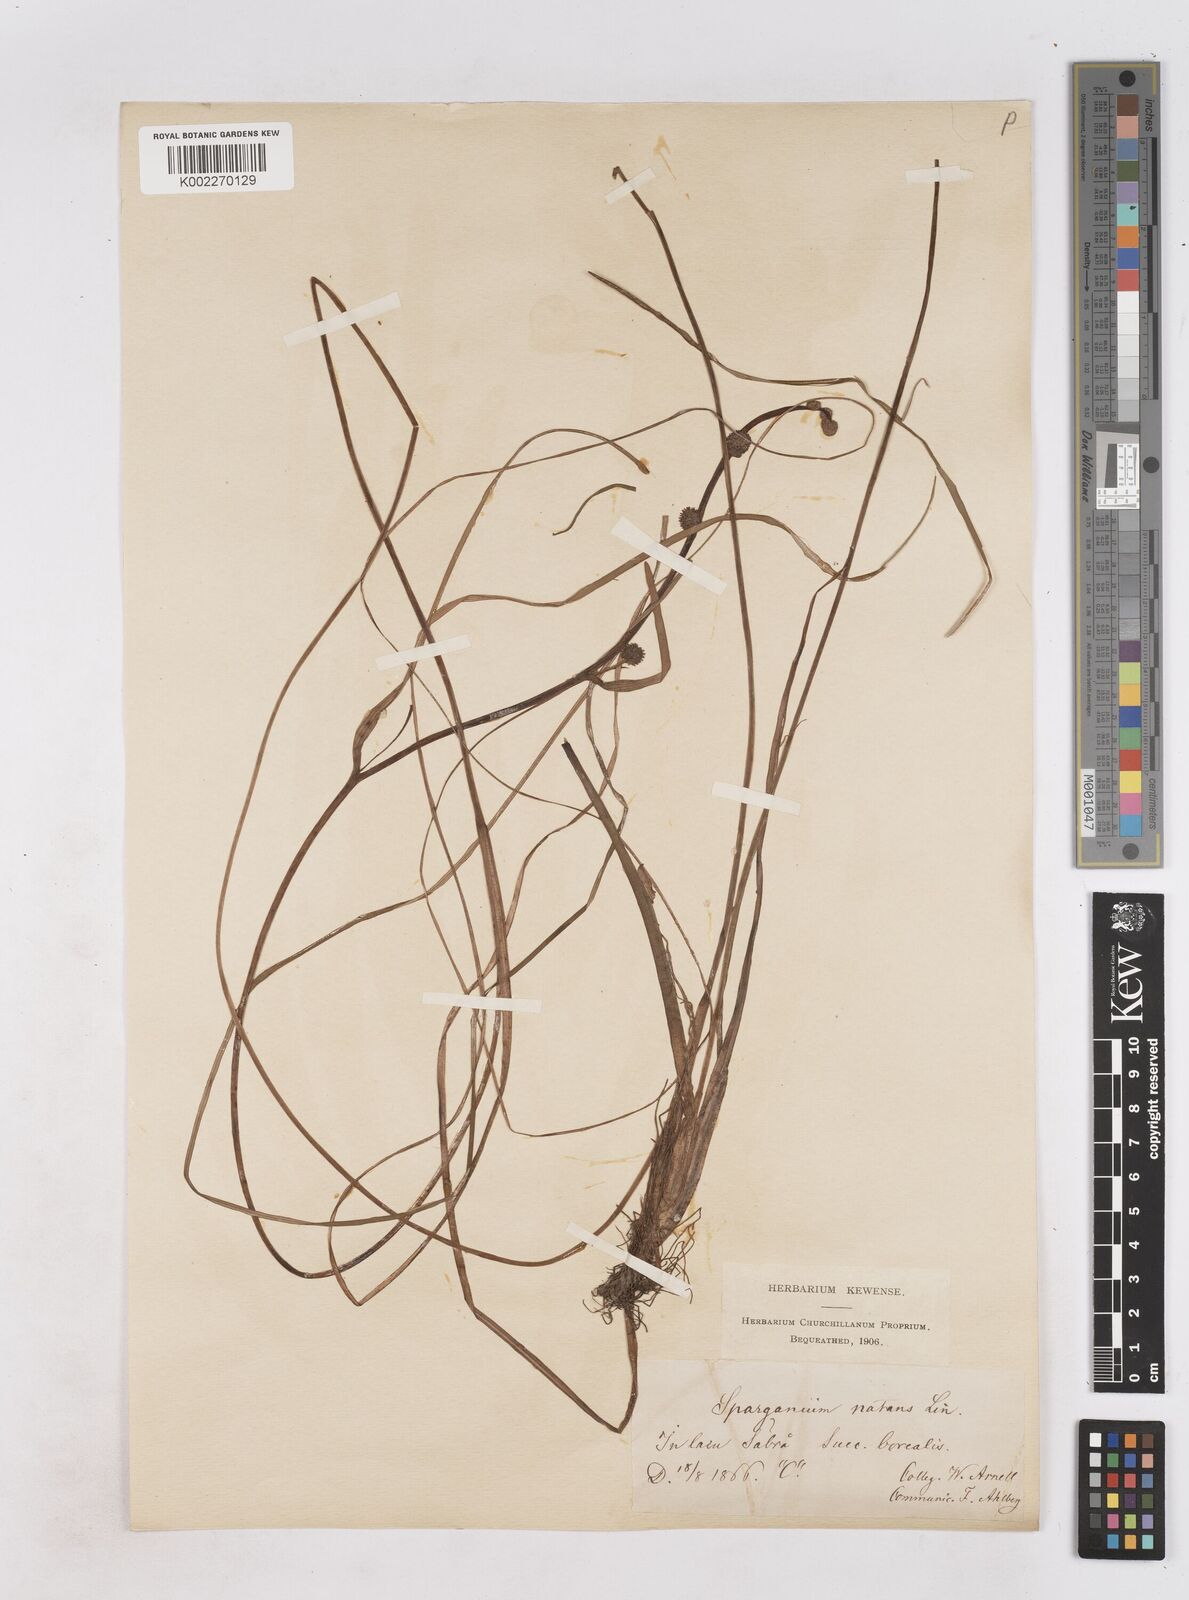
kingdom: Plantae
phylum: Tracheophyta
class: Liliopsida
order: Poales
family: Typhaceae
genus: Sparganium
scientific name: Sparganium natans
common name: Least bur-reed
